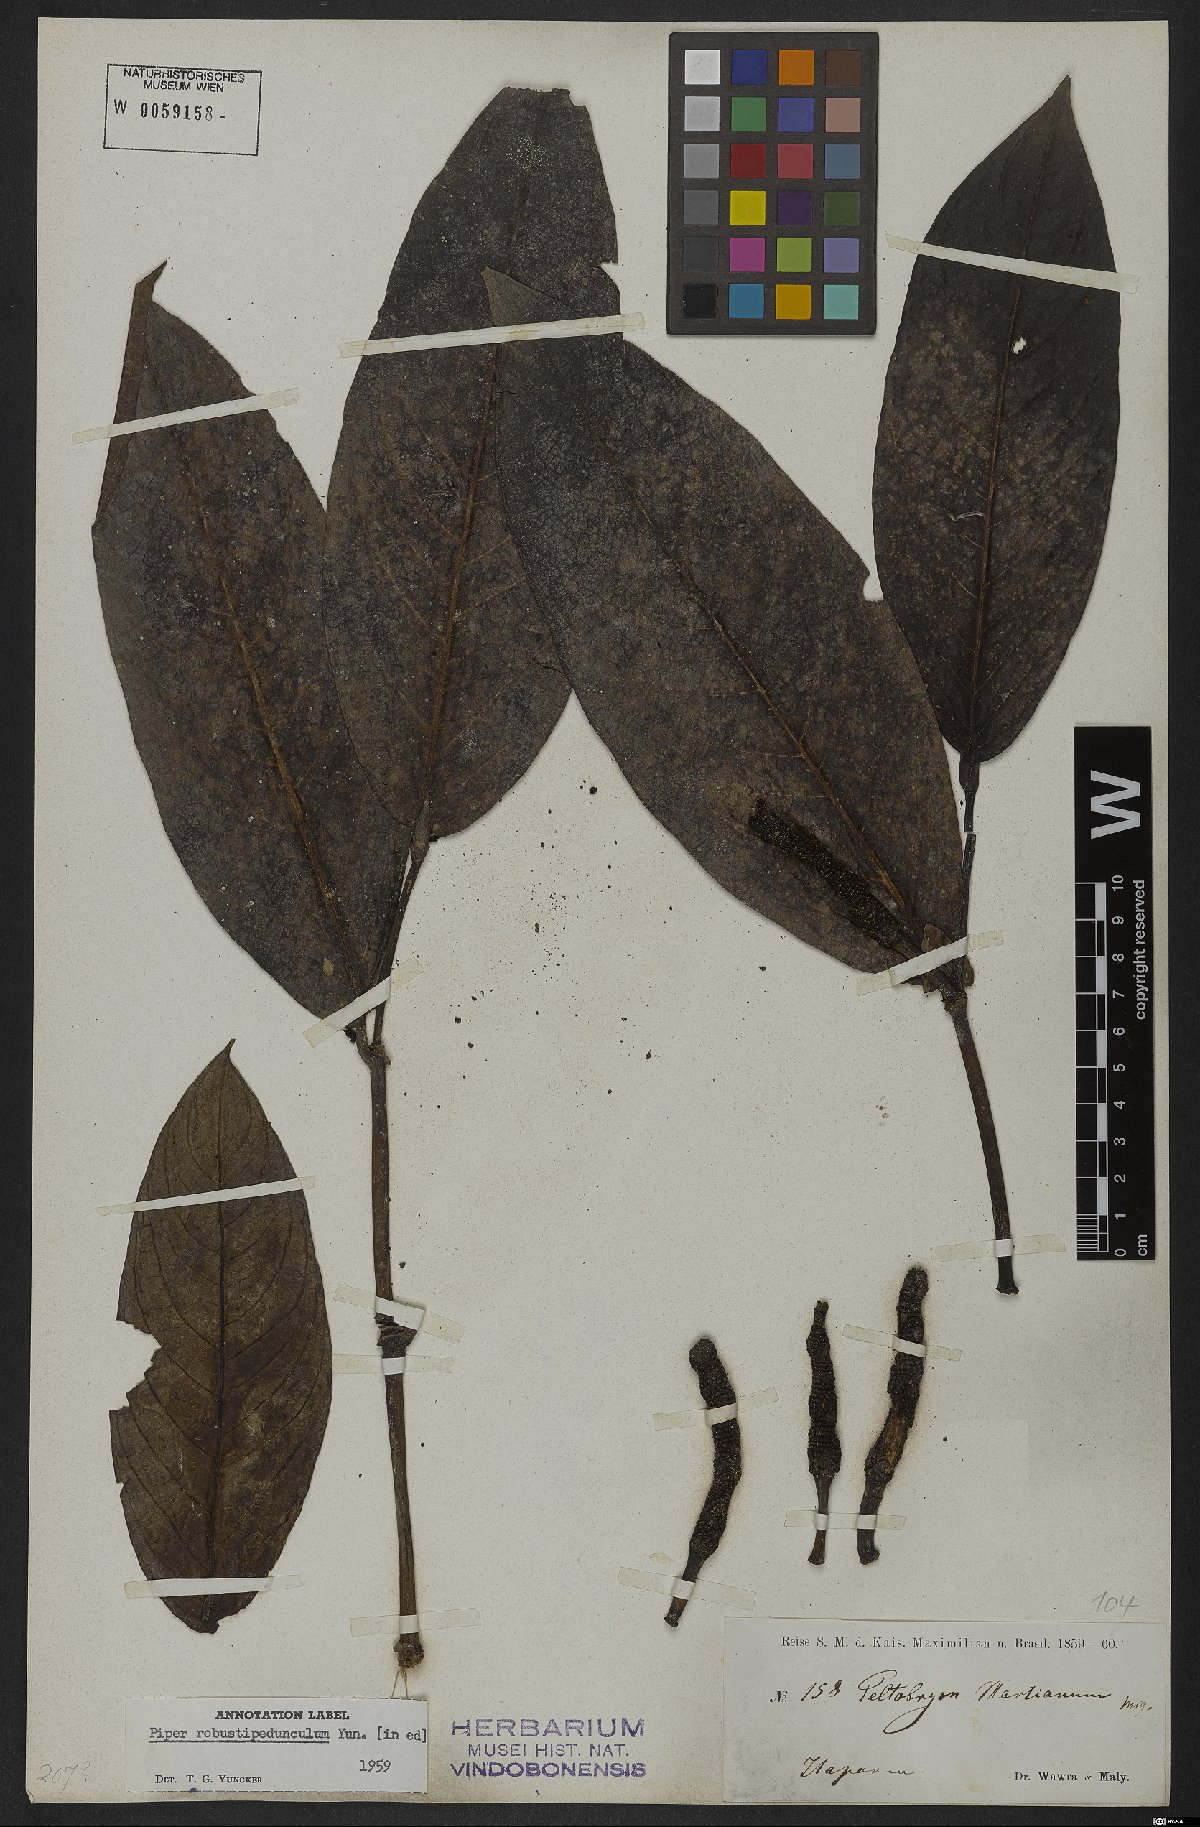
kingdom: Plantae
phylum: Tracheophyta
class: Magnoliopsida
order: Piperales
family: Piperaceae
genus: Piper
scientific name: Piper robustipedunculum
